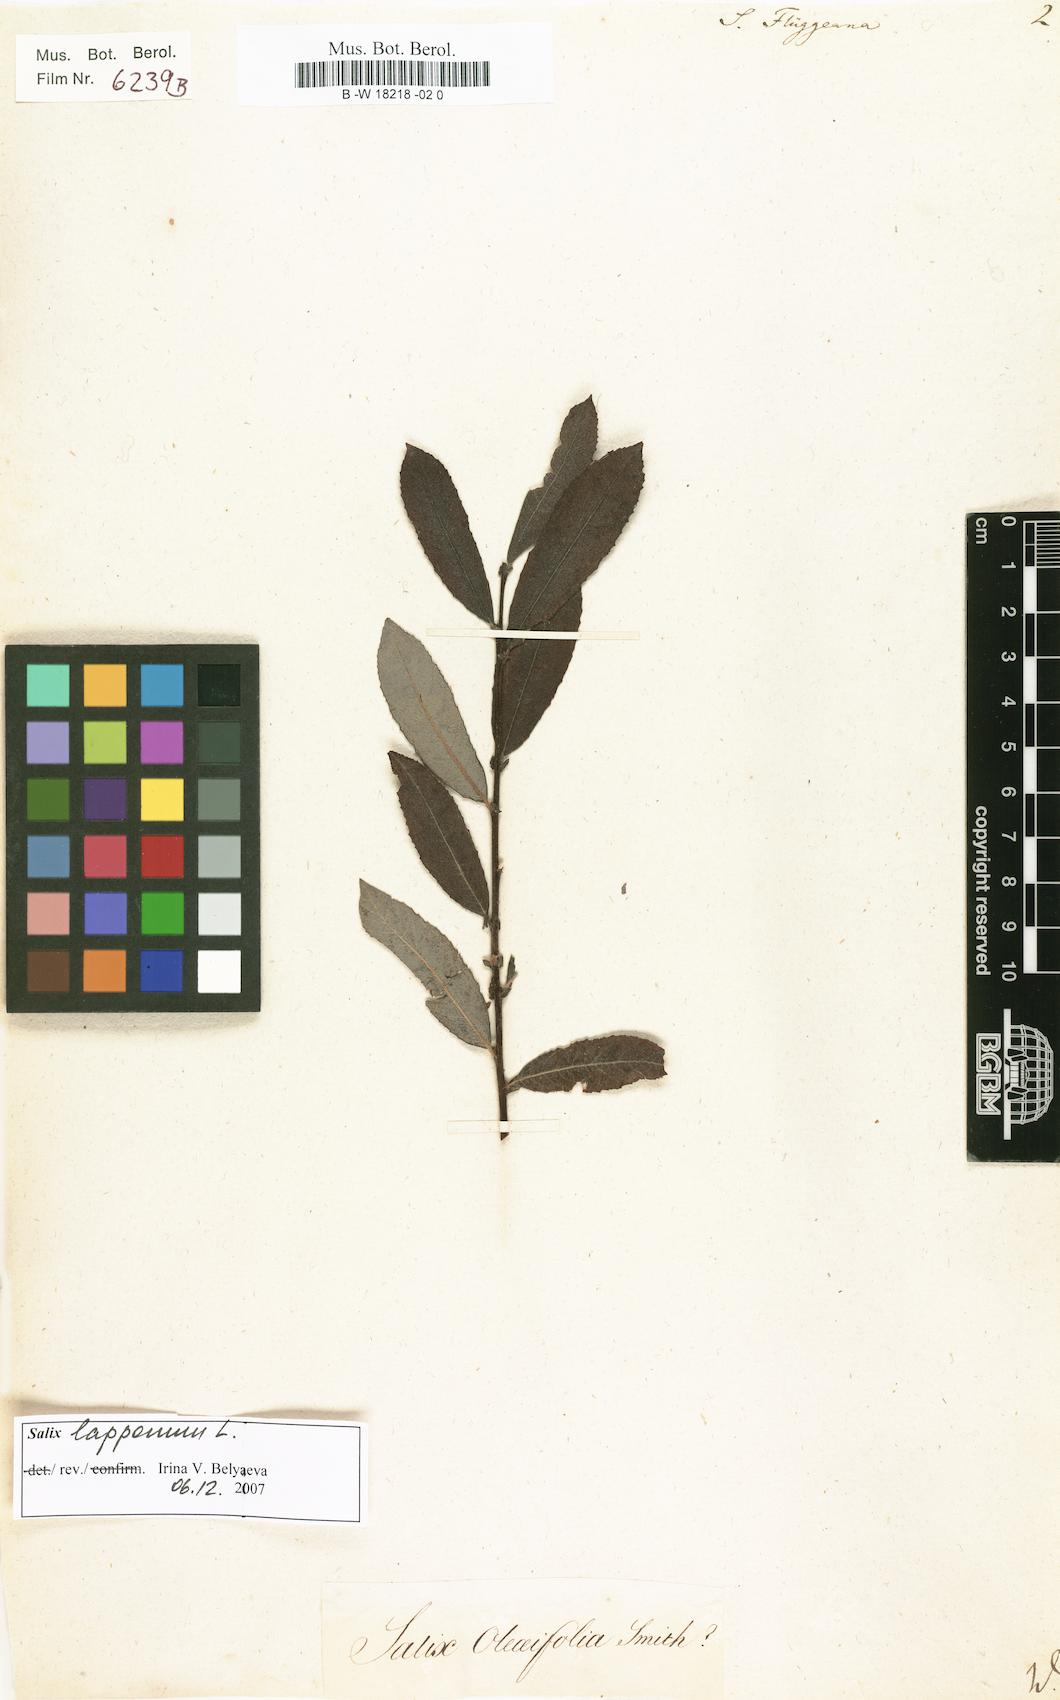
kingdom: Plantae
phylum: Tracheophyta
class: Magnoliopsida
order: Malpighiales
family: Salicaceae
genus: Salix
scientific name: Salix flueggeana
